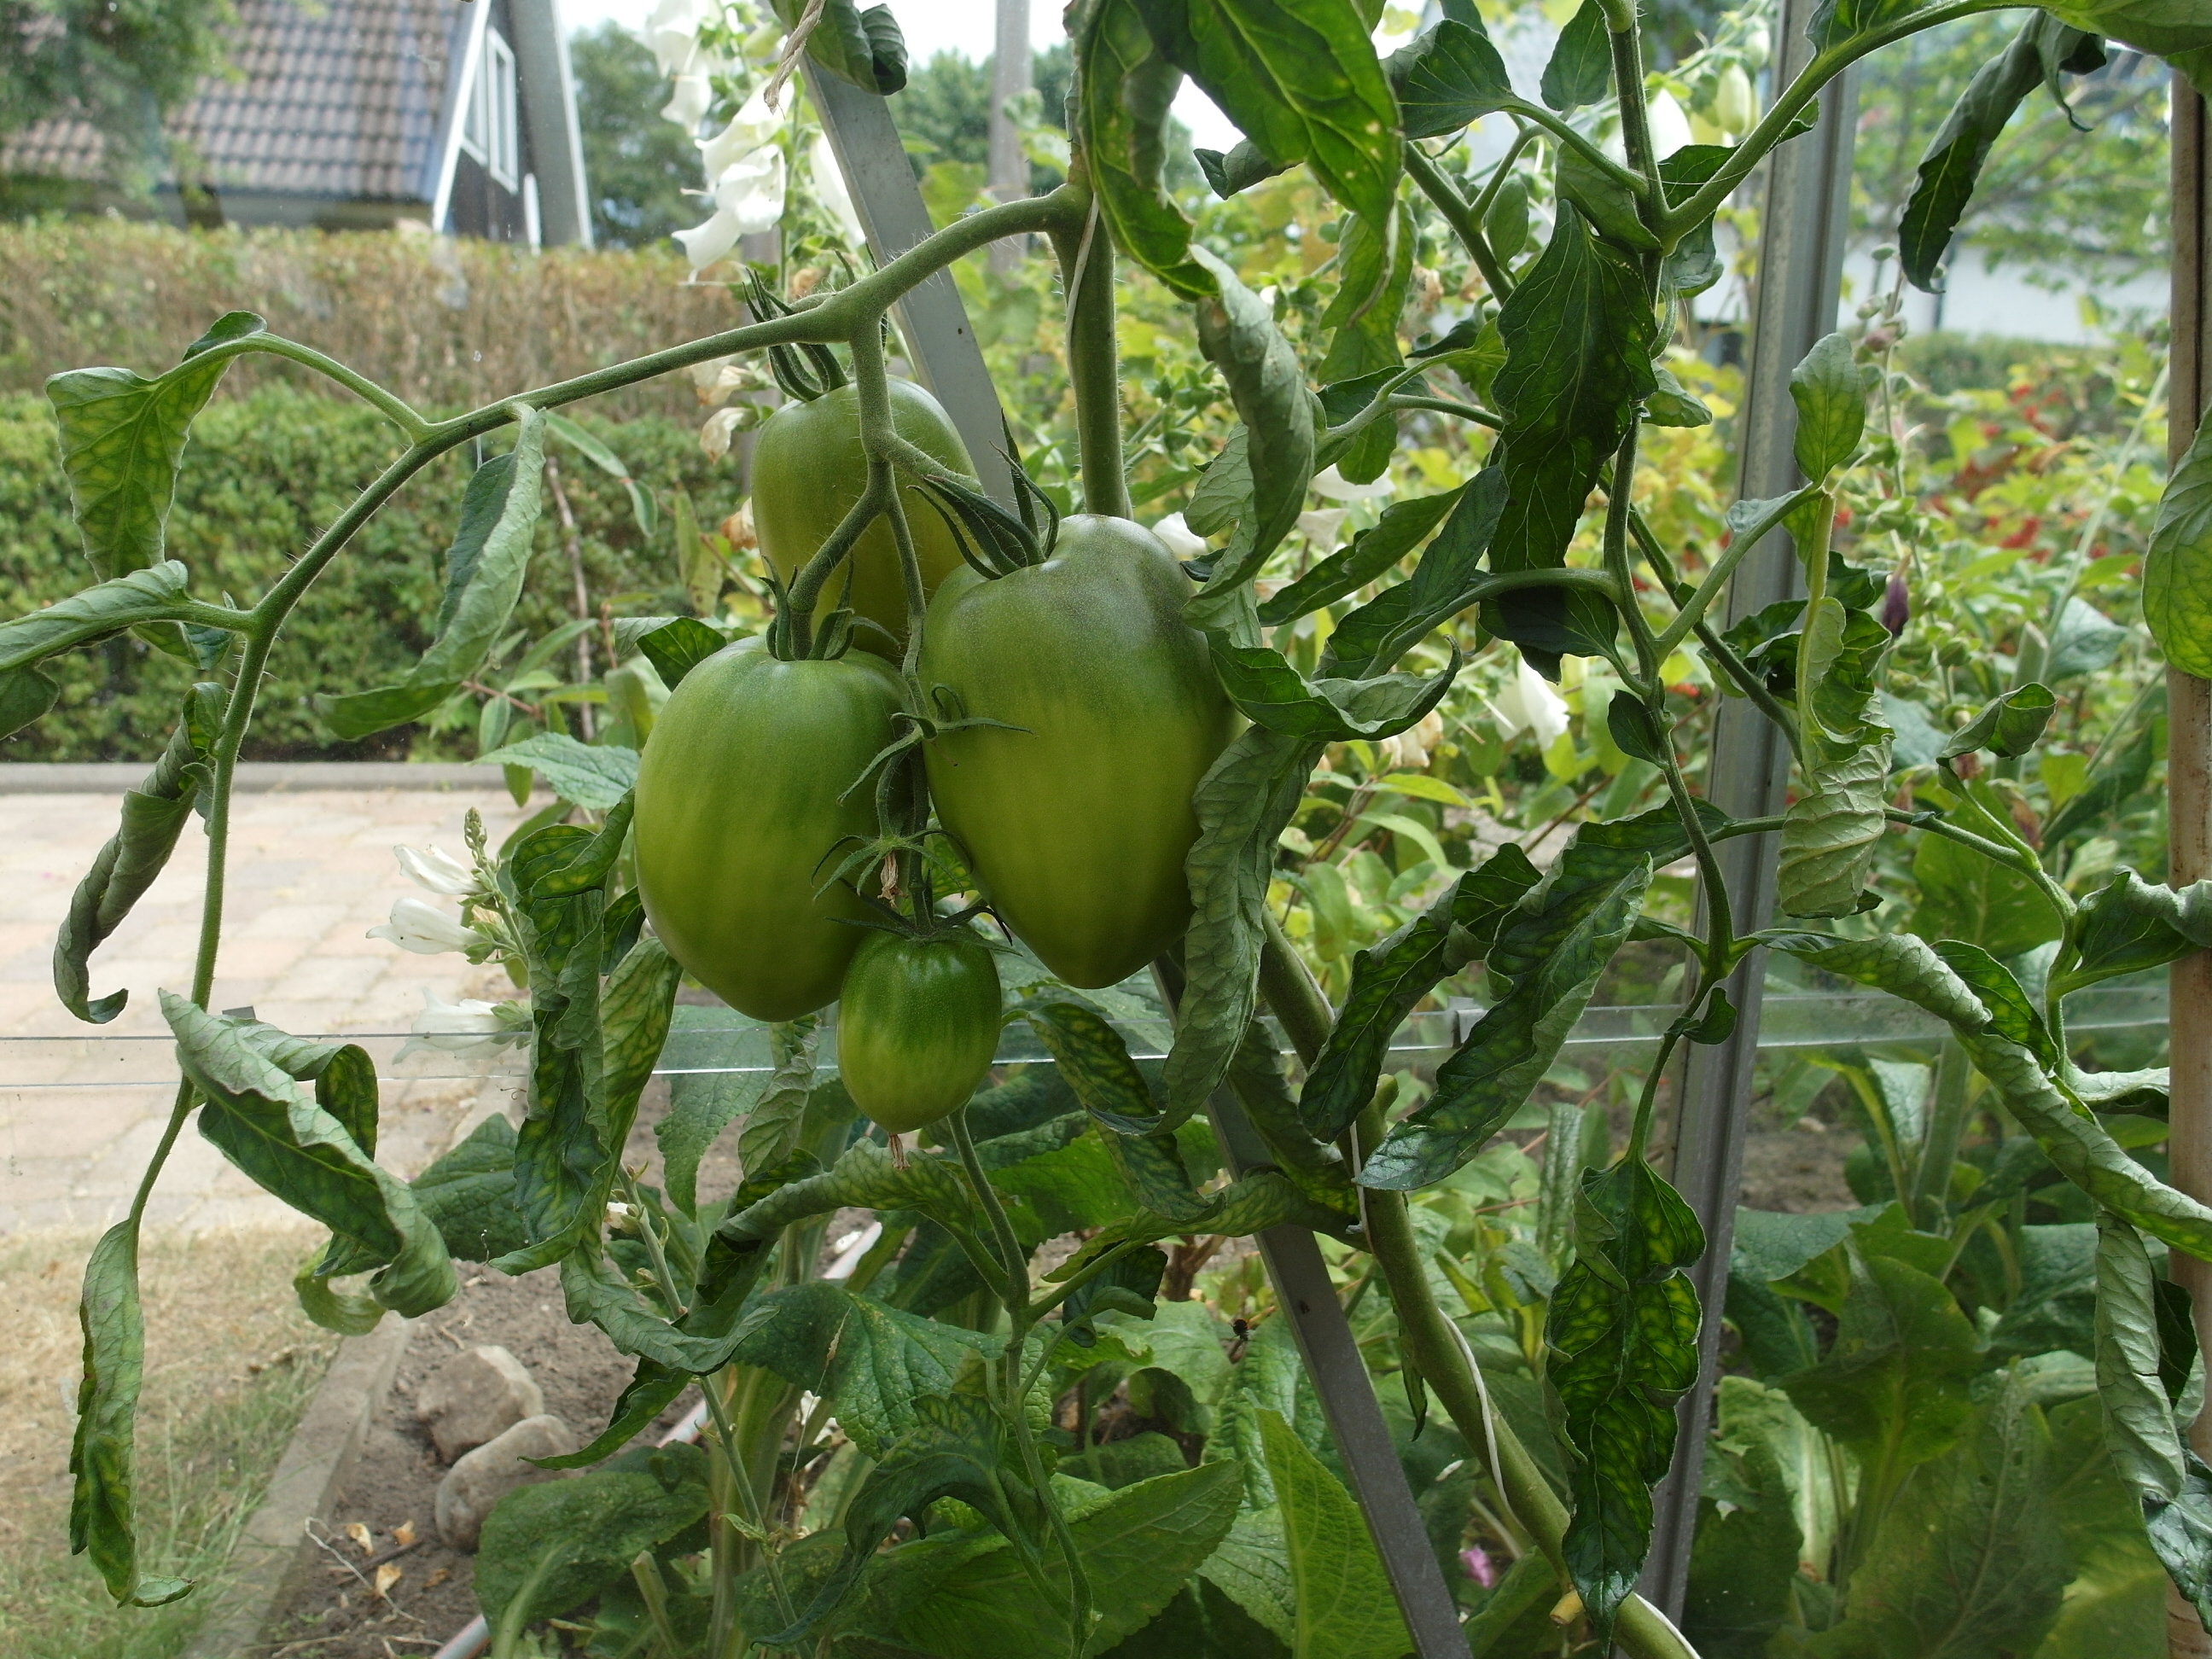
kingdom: Plantae
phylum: Tracheophyta
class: Magnoliopsida
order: Solanales
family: Solanaceae
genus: Solanum
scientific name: Solanum lycopersicum
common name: Garden tomato
